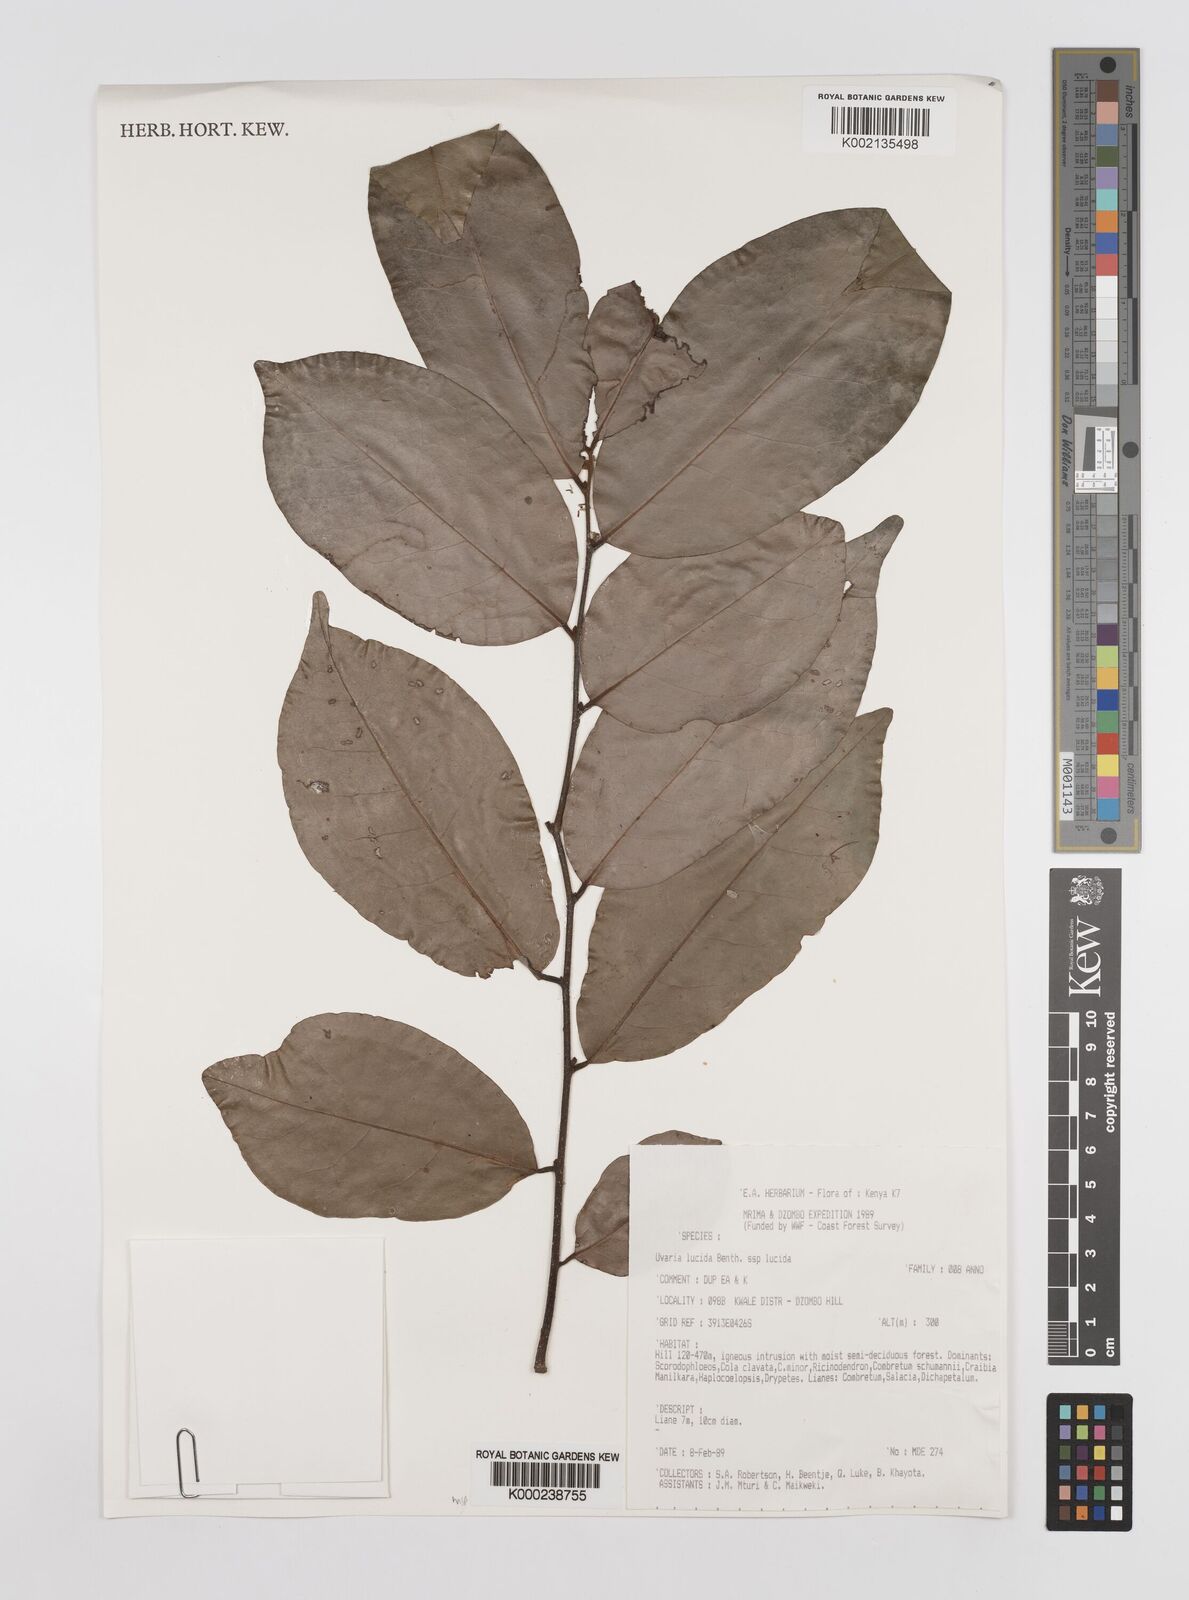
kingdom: Plantae
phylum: Tracheophyta
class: Magnoliopsida
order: Magnoliales
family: Annonaceae
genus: Uvaria
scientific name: Uvaria lucida
